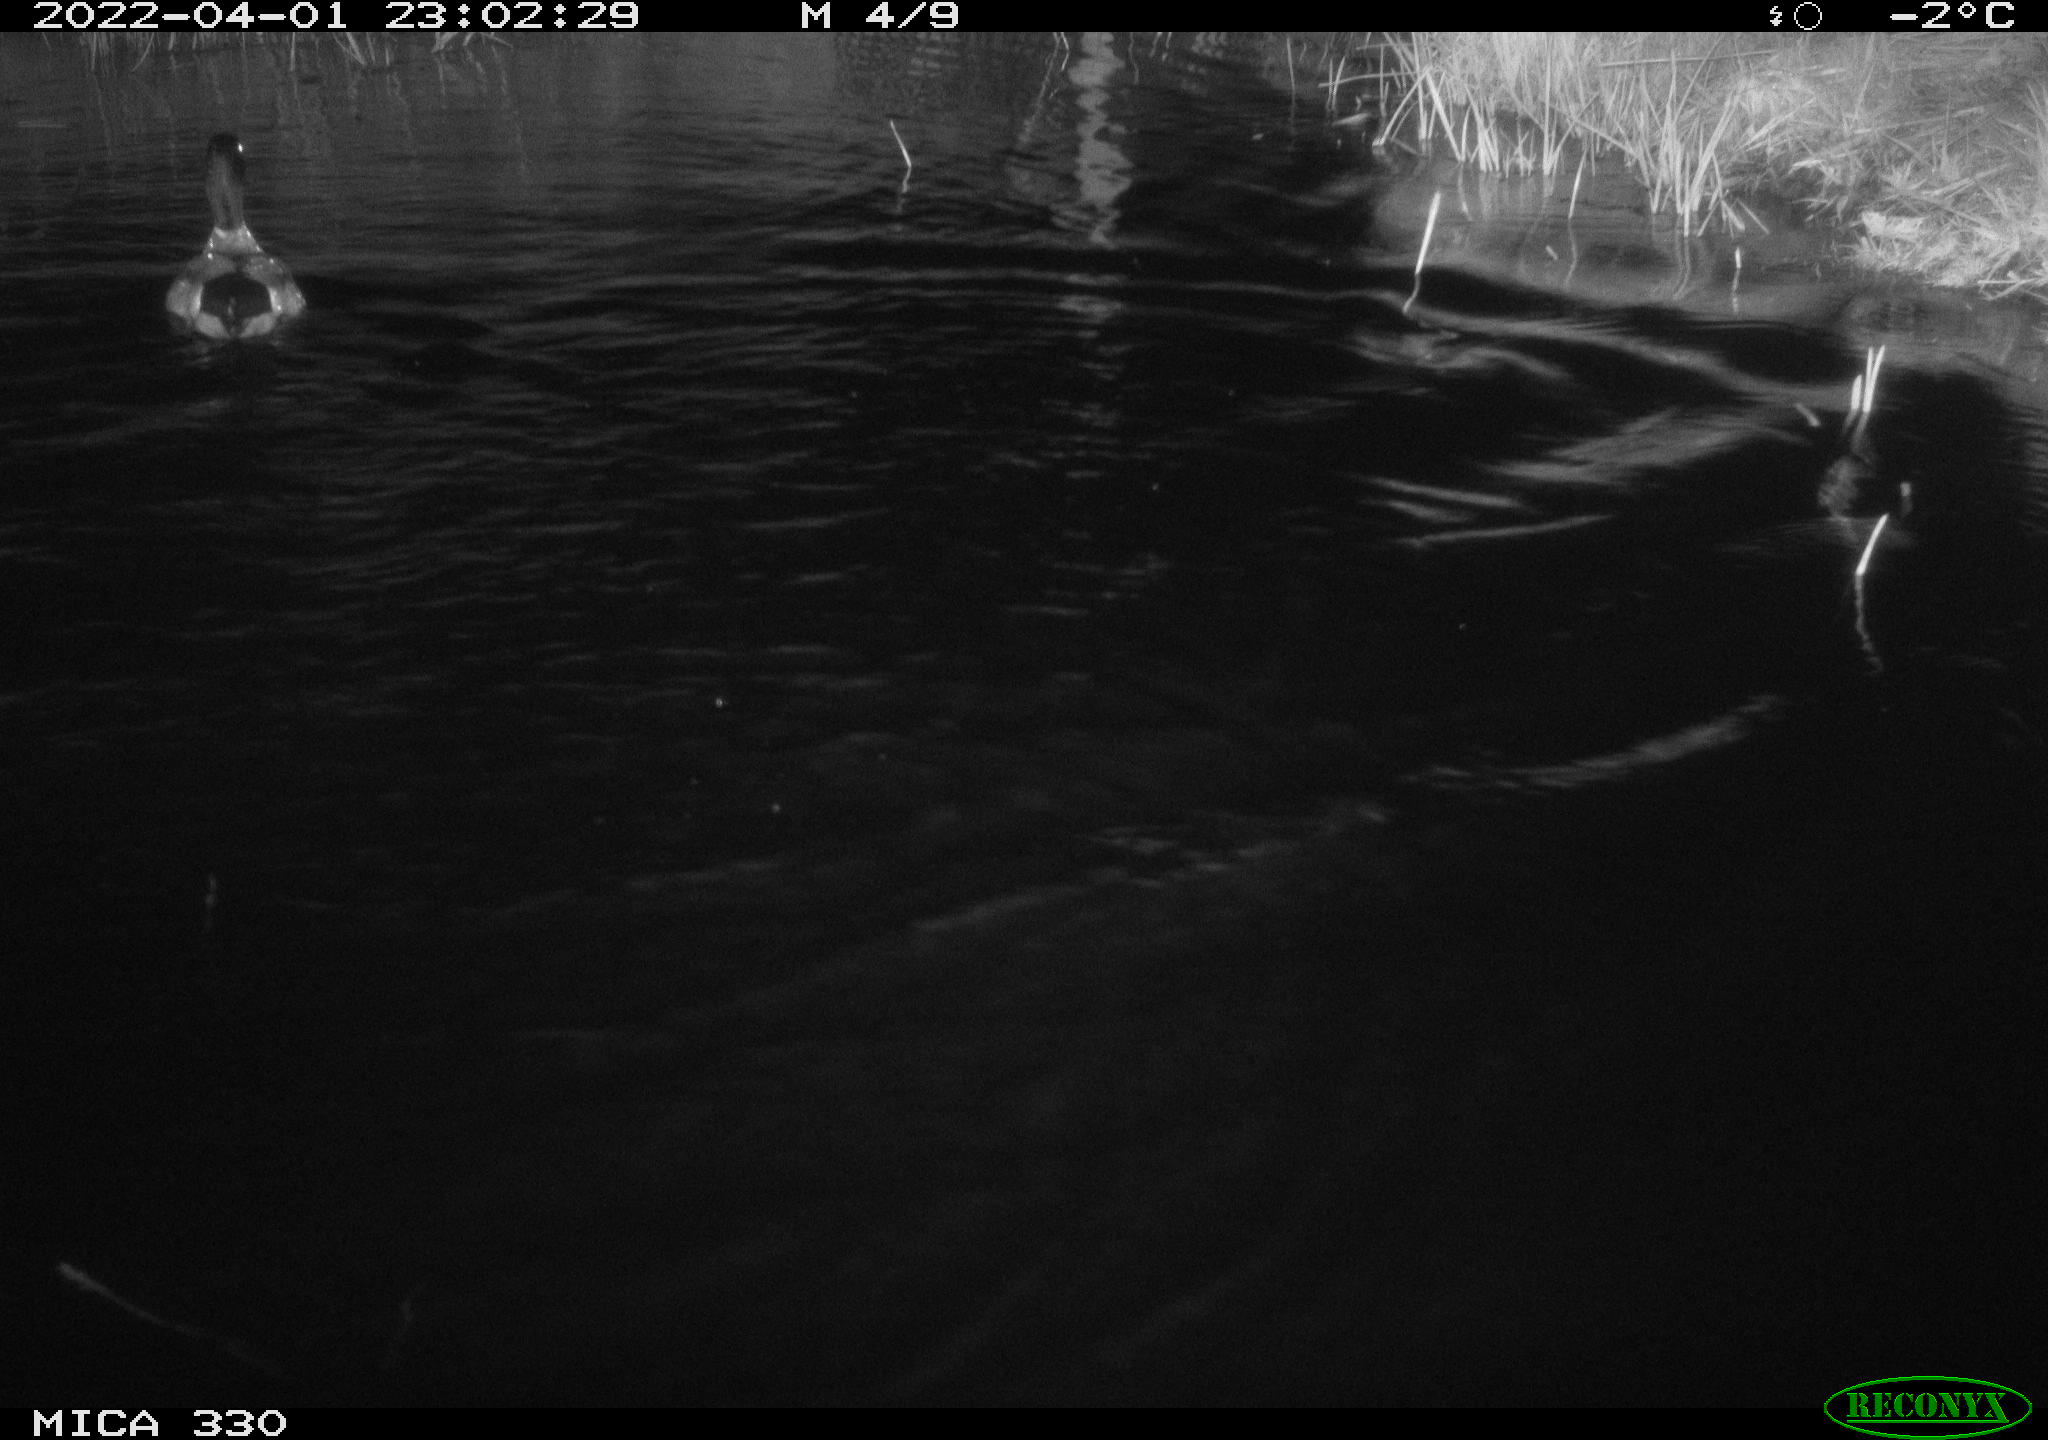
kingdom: Animalia
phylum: Chordata
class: Aves
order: Anseriformes
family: Anatidae
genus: Anas
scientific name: Anas platyrhynchos
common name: Mallard
